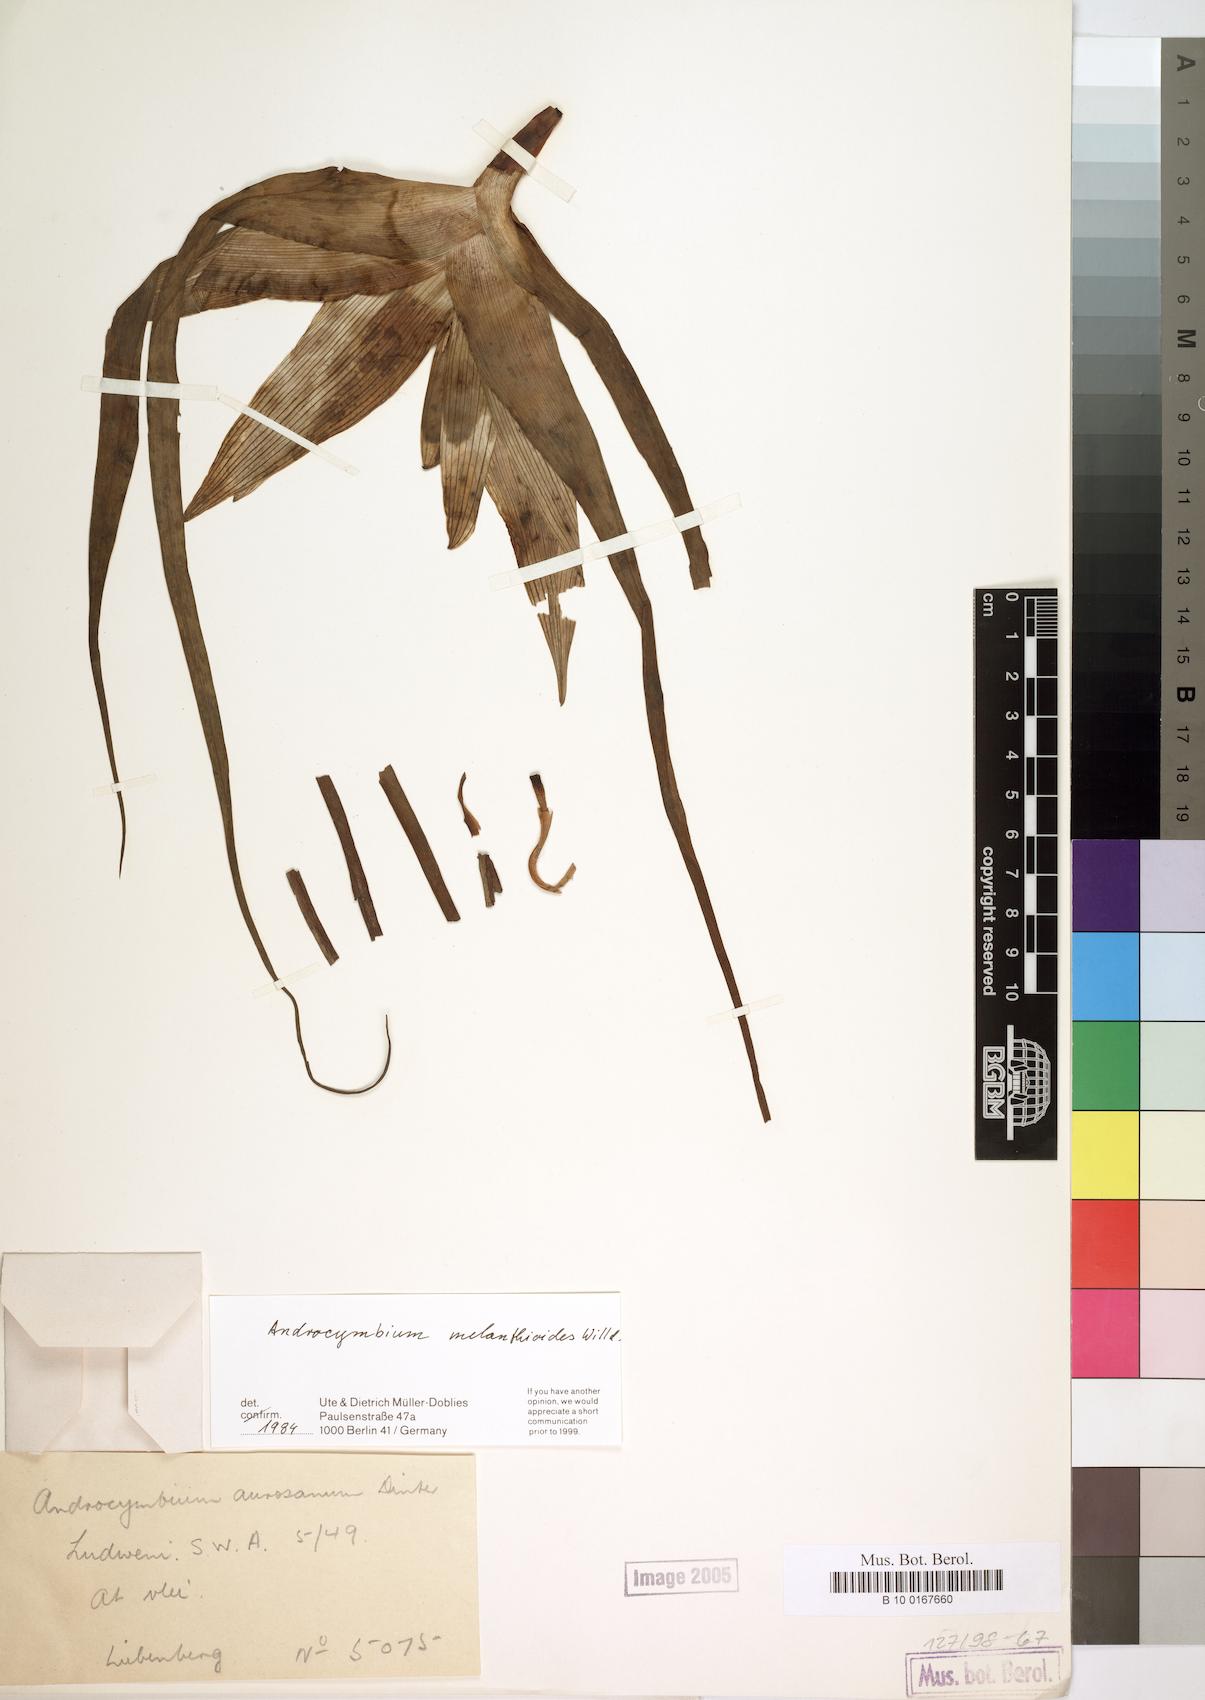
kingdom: Plantae
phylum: Tracheophyta
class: Liliopsida
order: Liliales
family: Colchicaceae
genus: Colchicum
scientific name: Colchicum melanthioides
